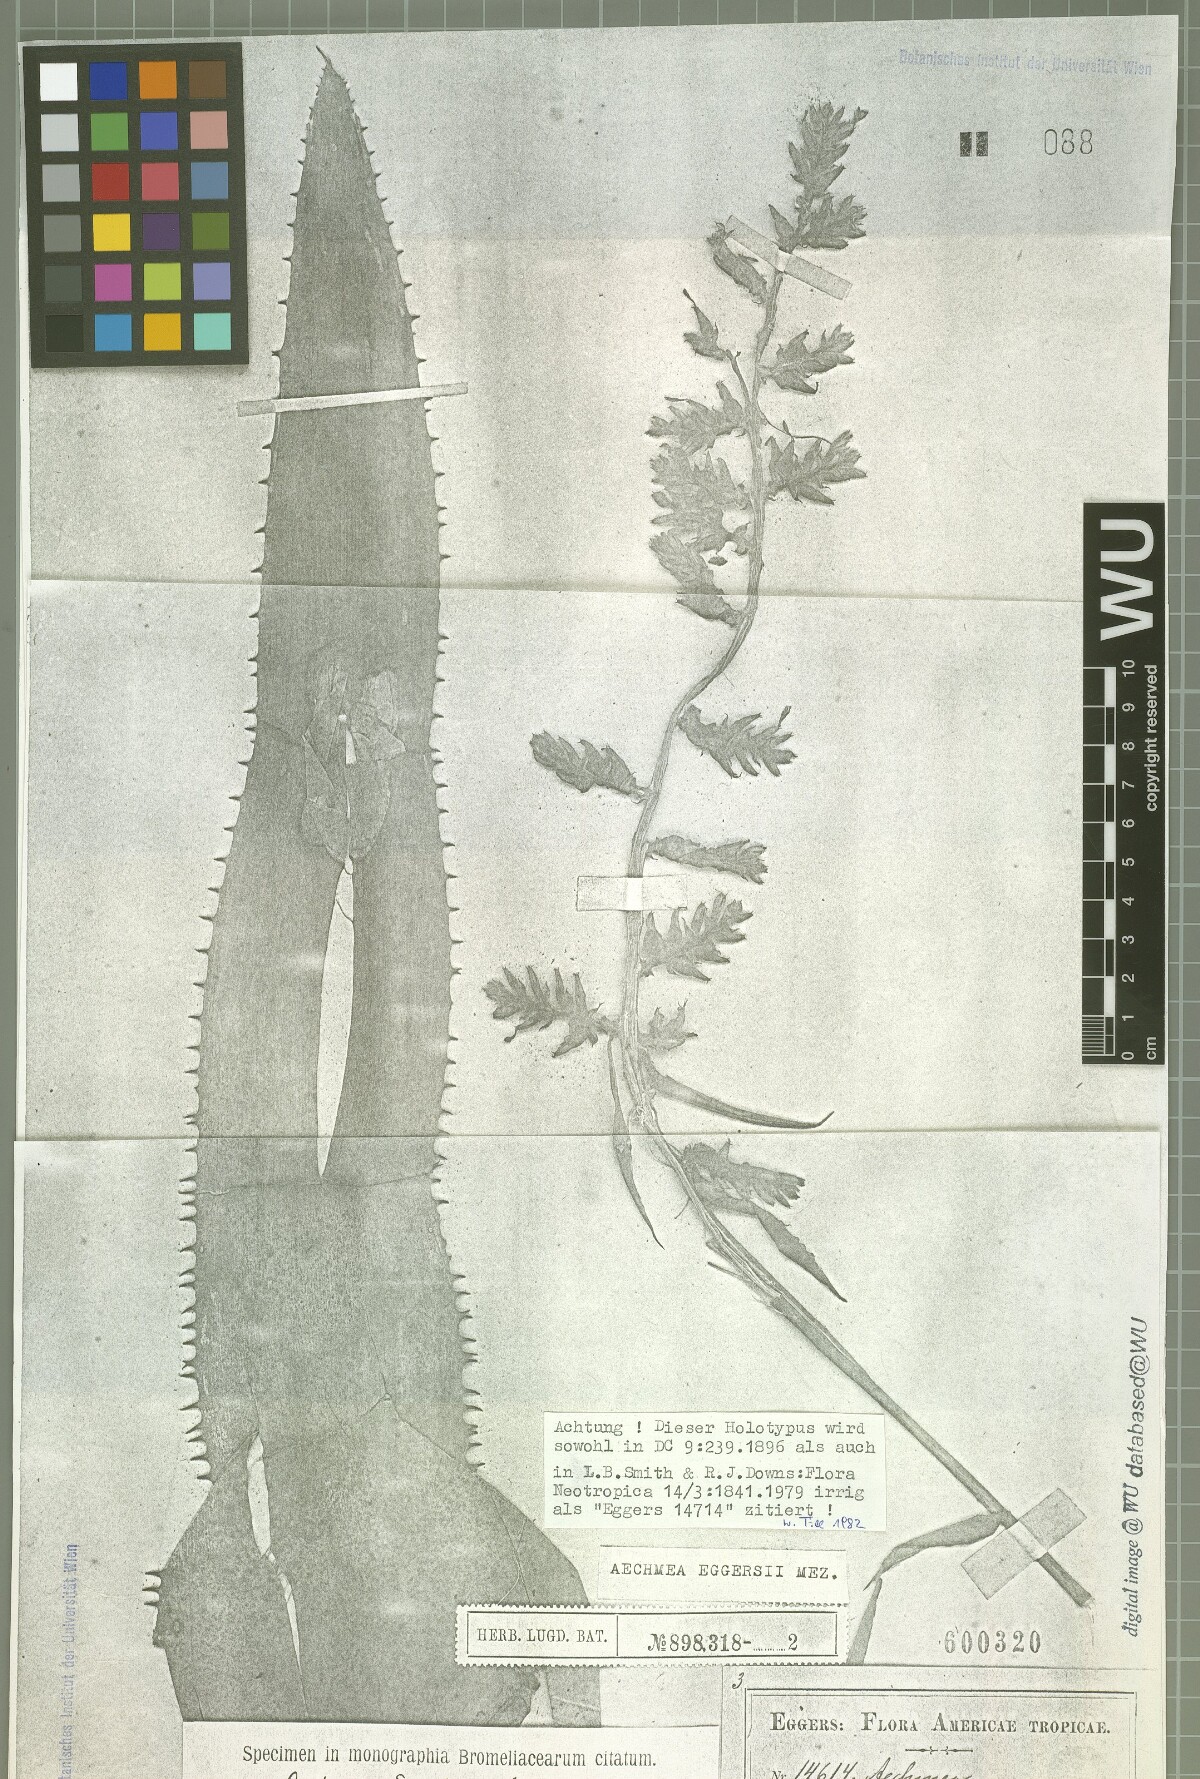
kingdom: Plantae
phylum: Tracheophyta
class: Liliopsida
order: Poales
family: Bromeliaceae
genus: Aechmea
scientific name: Aechmea angustifolia
